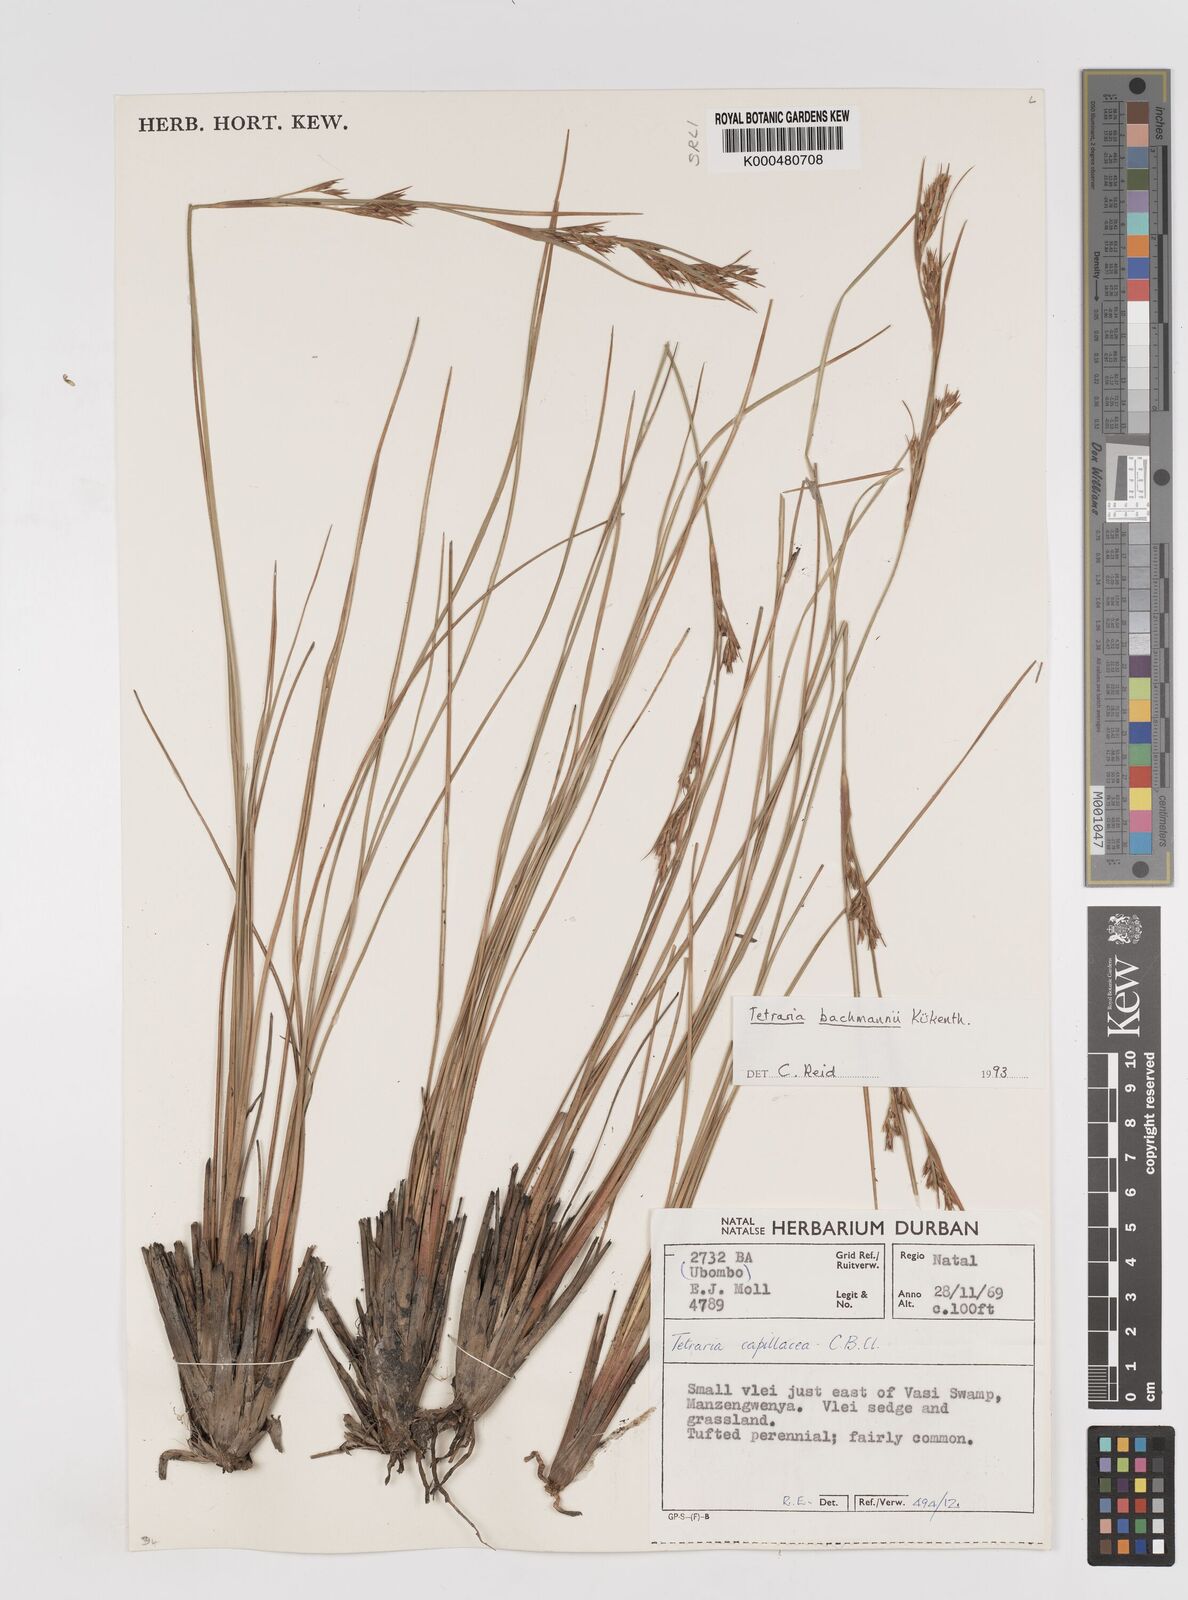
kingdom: Plantae
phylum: Tracheophyta
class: Liliopsida
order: Poales
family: Cyperaceae
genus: Cyathocoma
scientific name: Cyathocoma bachmannii
